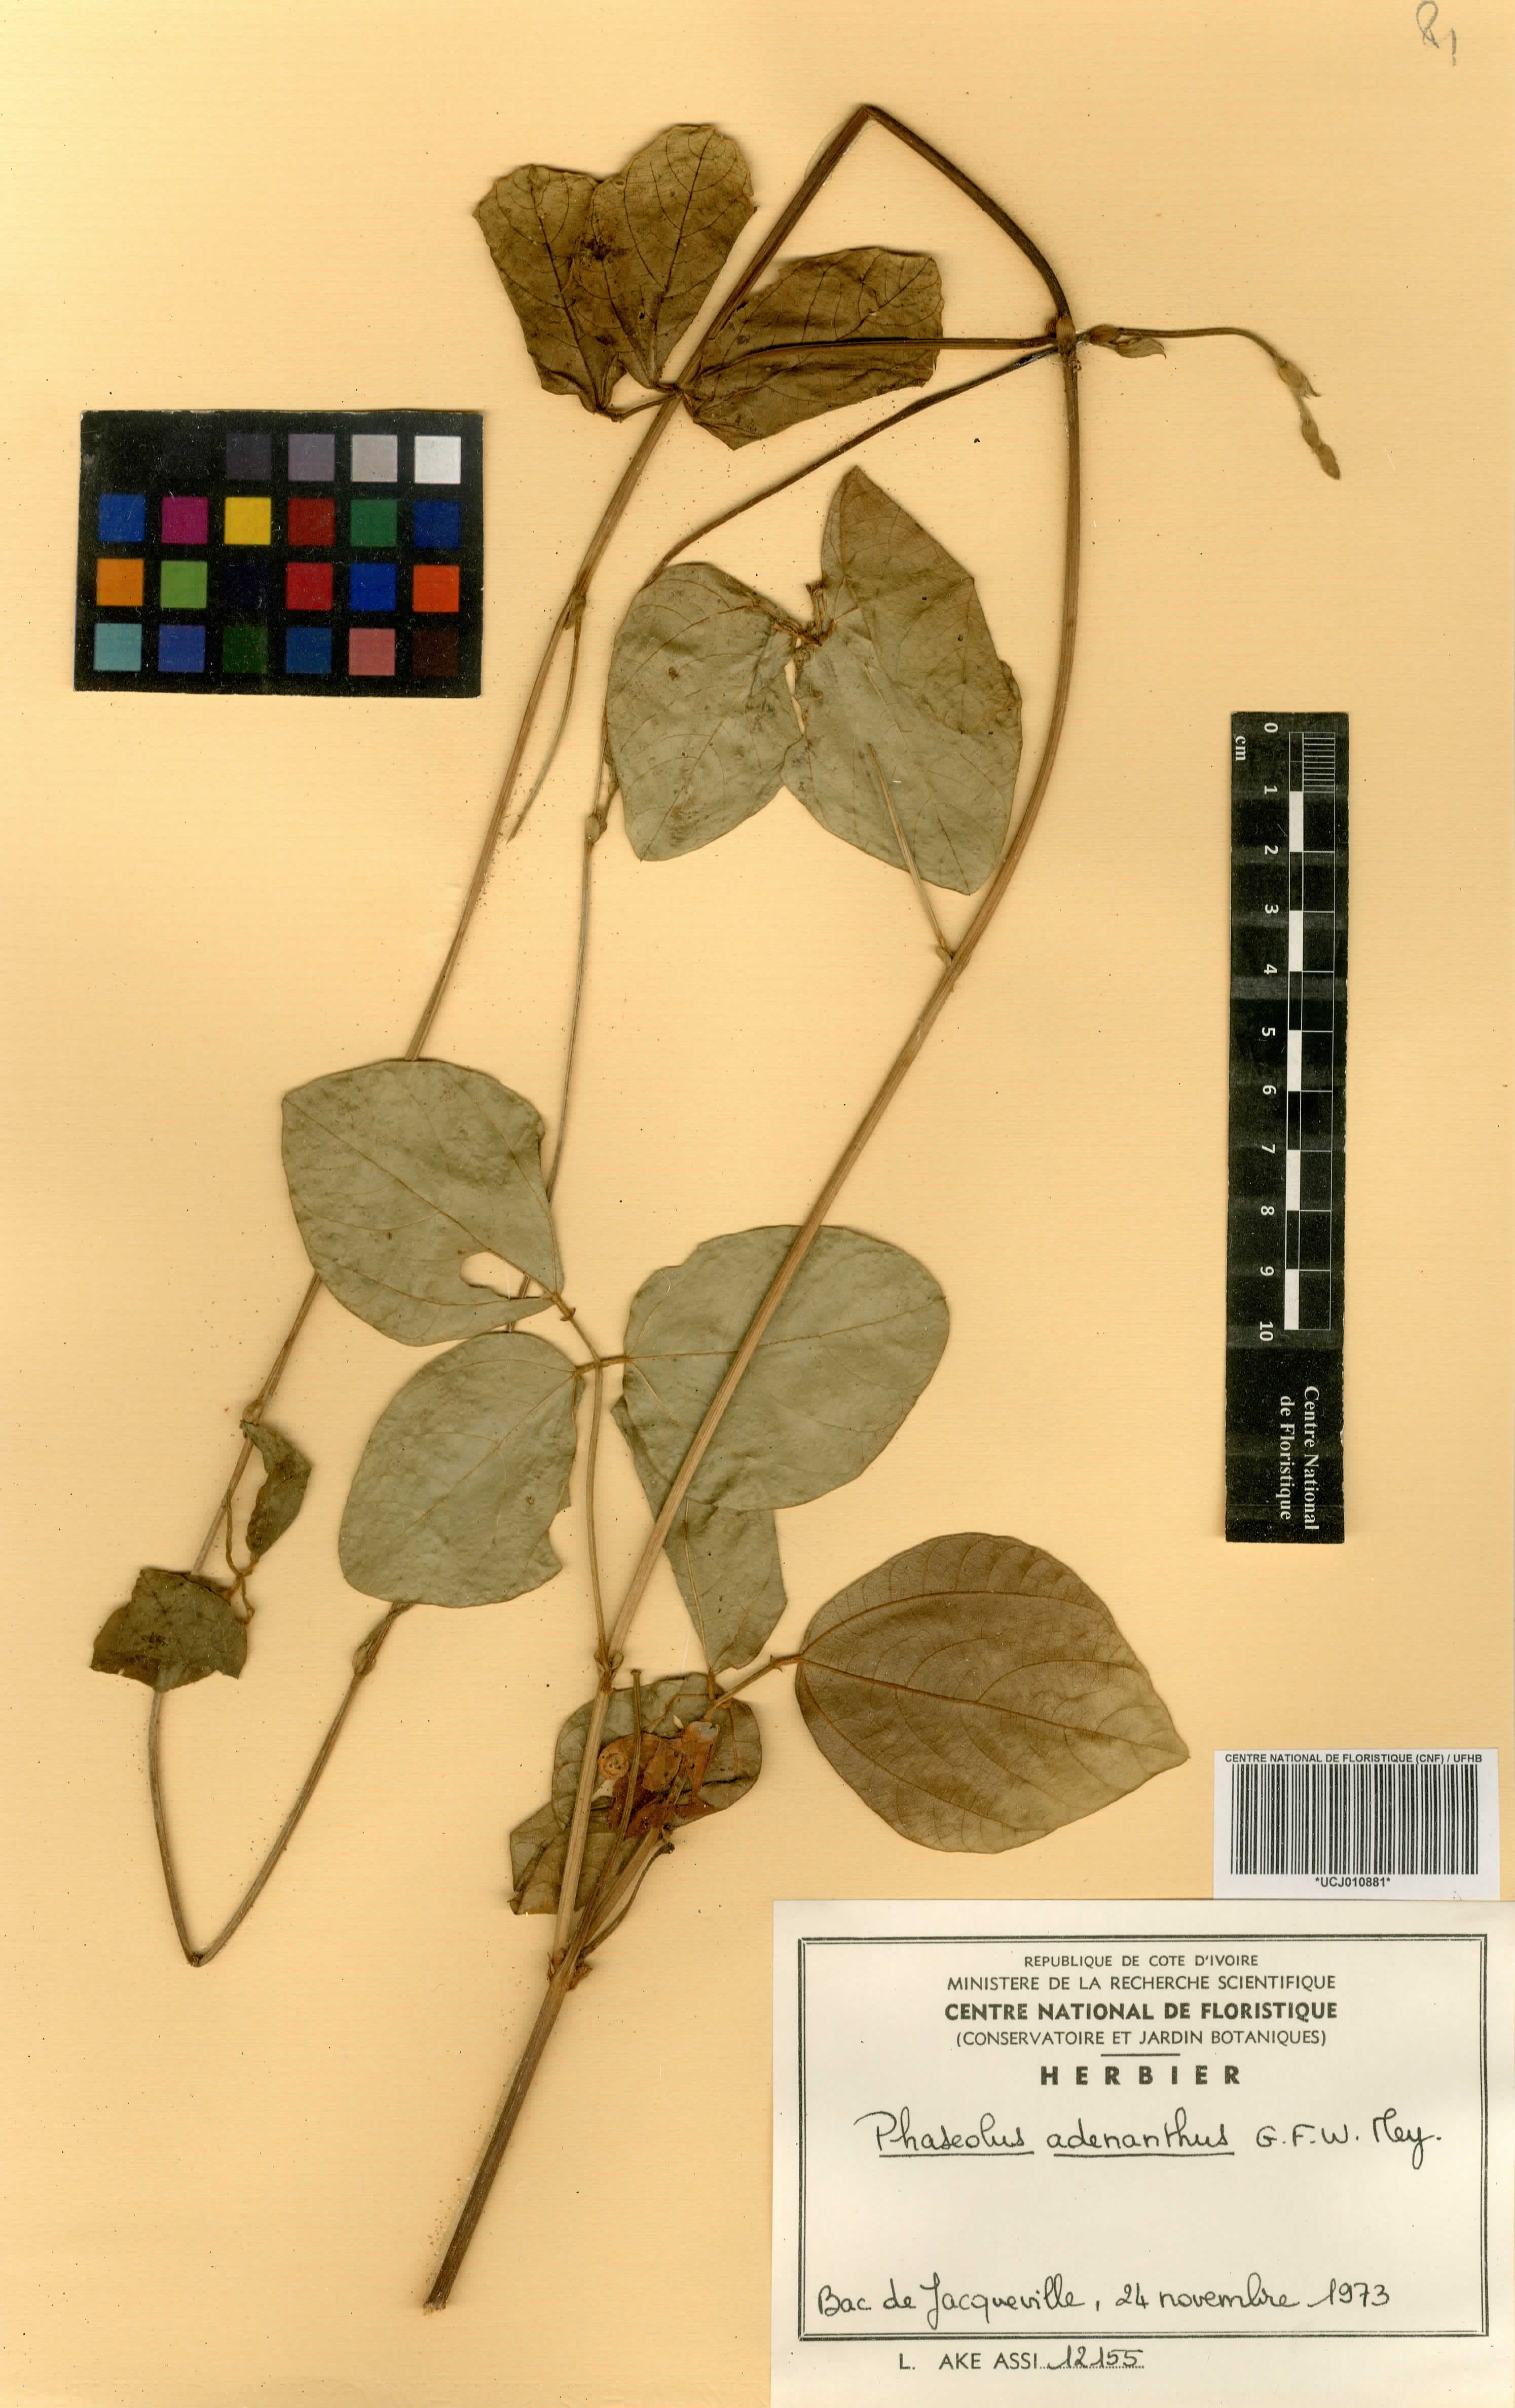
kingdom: Plantae
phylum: Tracheophyta
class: Magnoliopsida
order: Fabales
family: Fabaceae
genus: Leptospron
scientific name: Leptospron adenanthum
